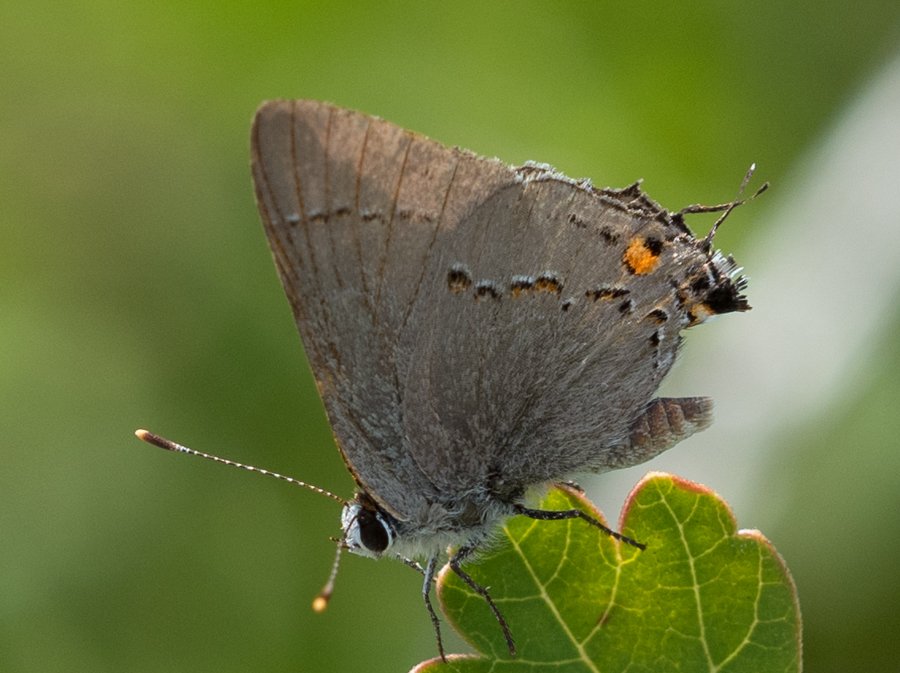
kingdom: Animalia
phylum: Arthropoda
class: Insecta
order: Lepidoptera
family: Lycaenidae
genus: Strymon
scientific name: Strymon melinus
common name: Gray Hairstreak
